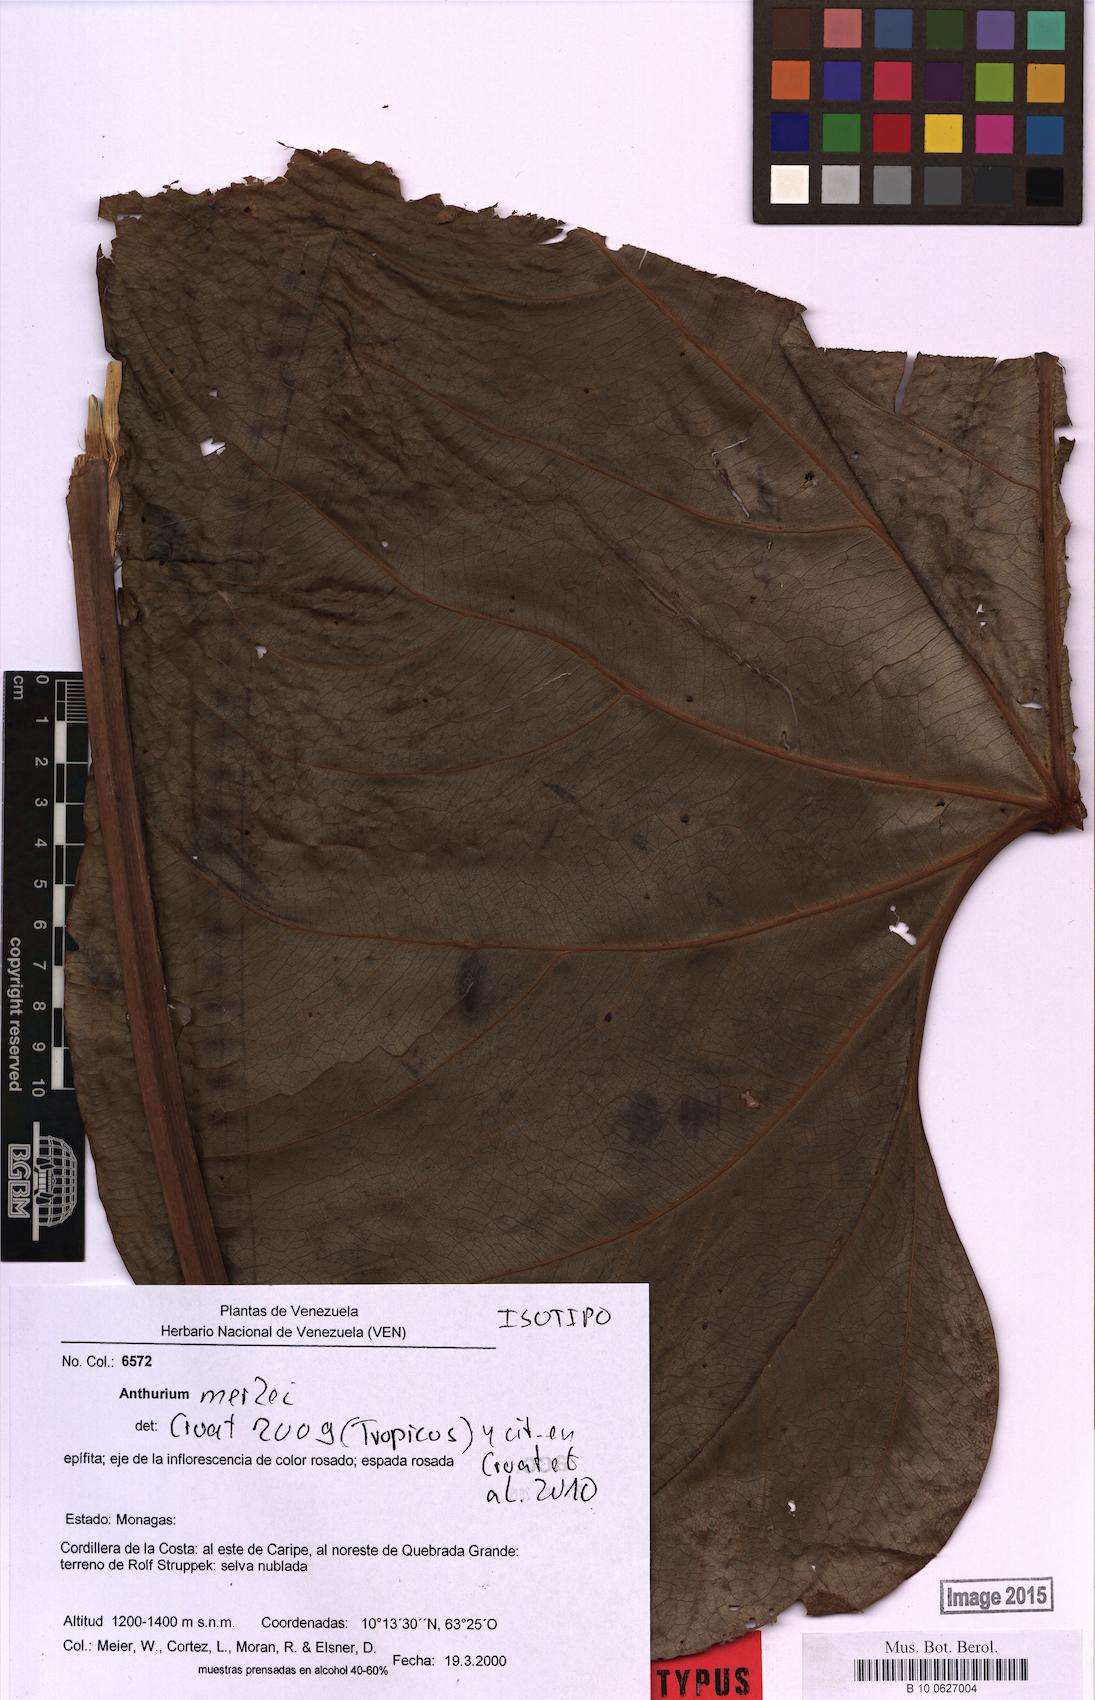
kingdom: Plantae
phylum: Tracheophyta
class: Liliopsida
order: Alismatales
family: Araceae
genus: Anthurium
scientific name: Anthurium merlei
